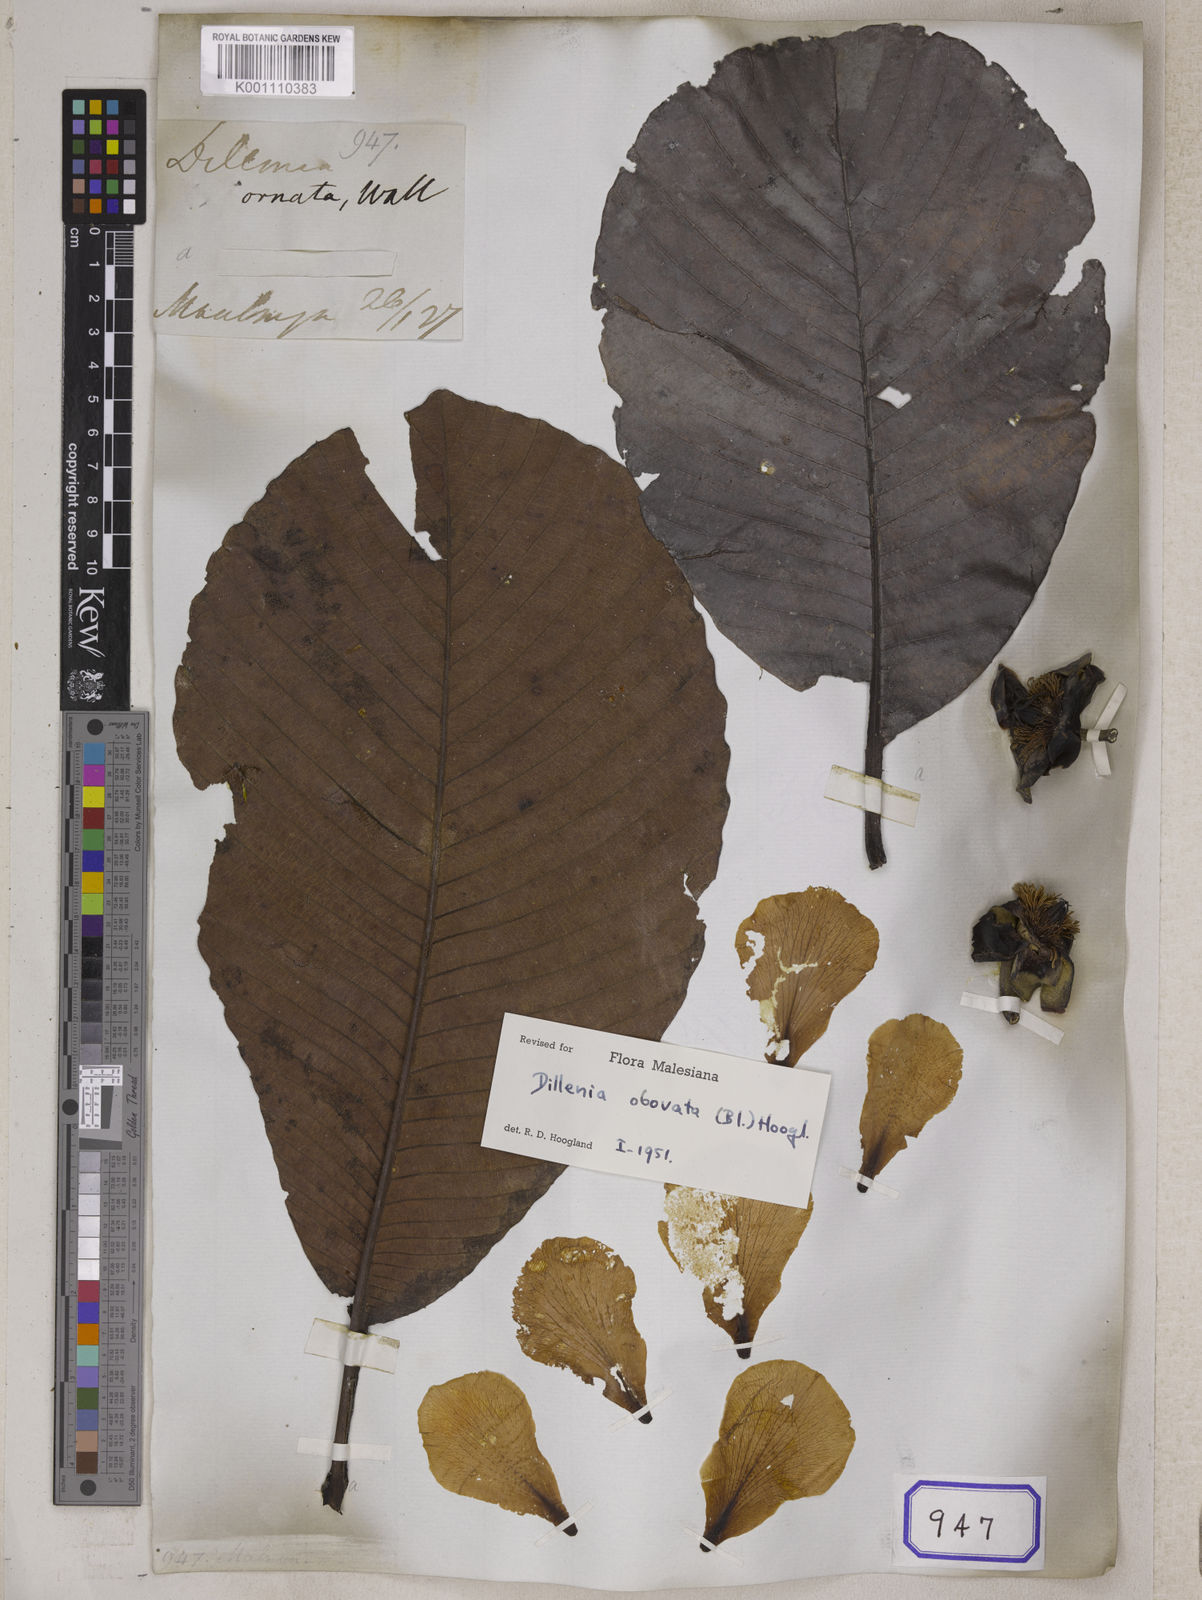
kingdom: Plantae
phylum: Tracheophyta
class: Magnoliopsida
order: Dilleniales
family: Dilleniaceae
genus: Dillenia
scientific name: Dillenia obovata
